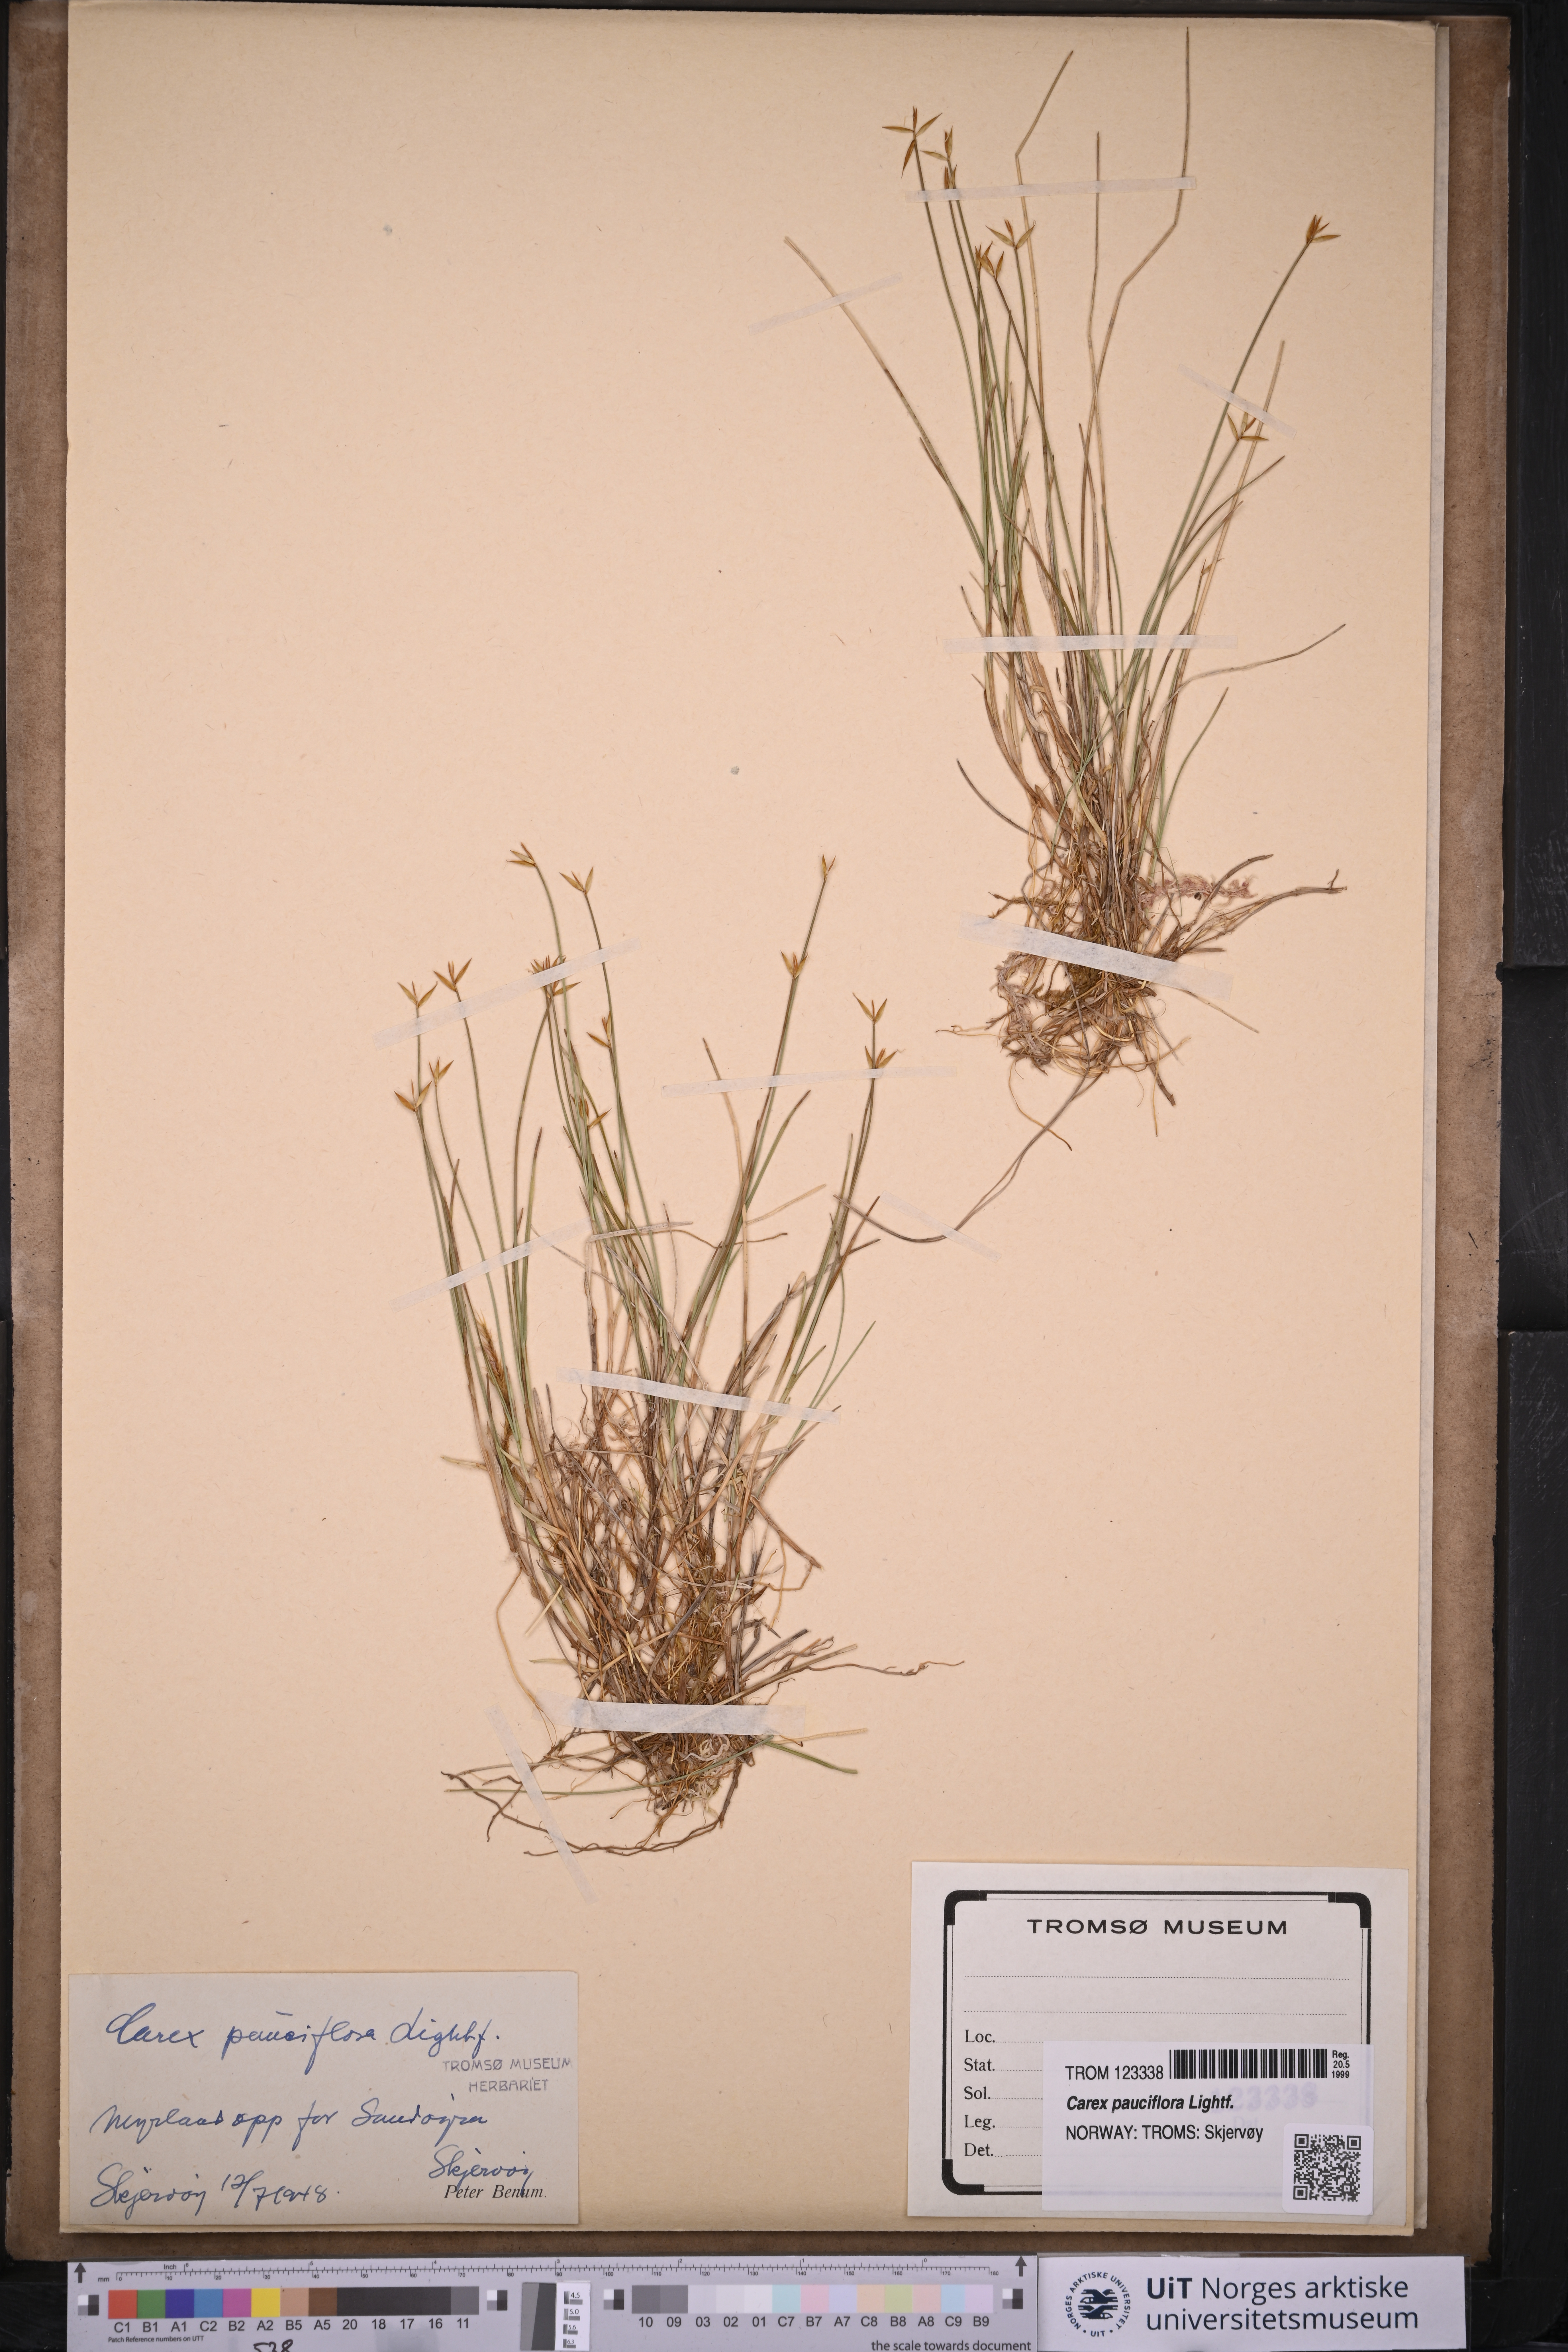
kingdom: Plantae
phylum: Tracheophyta
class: Liliopsida
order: Poales
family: Cyperaceae
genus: Carex
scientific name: Carex pauciflora
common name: Few-flowered sedge
